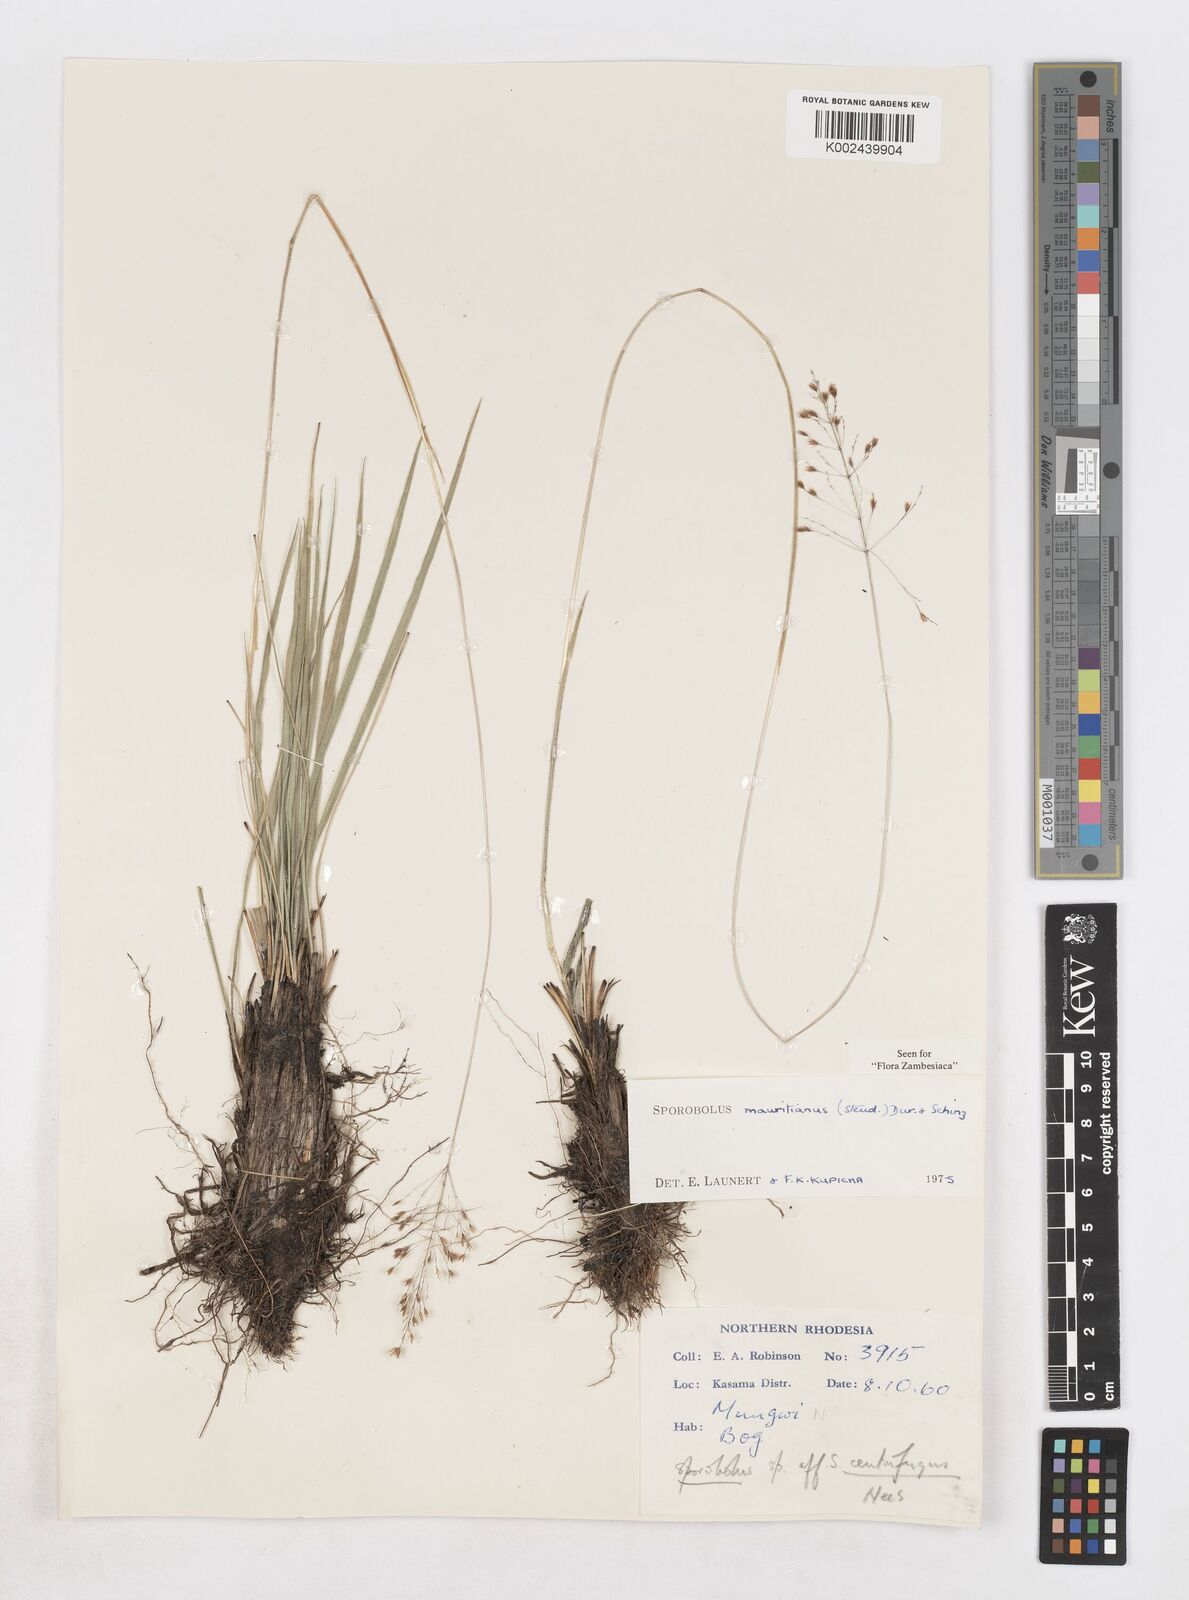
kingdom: Plantae
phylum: Tracheophyta
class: Liliopsida
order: Poales
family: Poaceae
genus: Sporobolus
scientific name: Sporobolus subulatus
